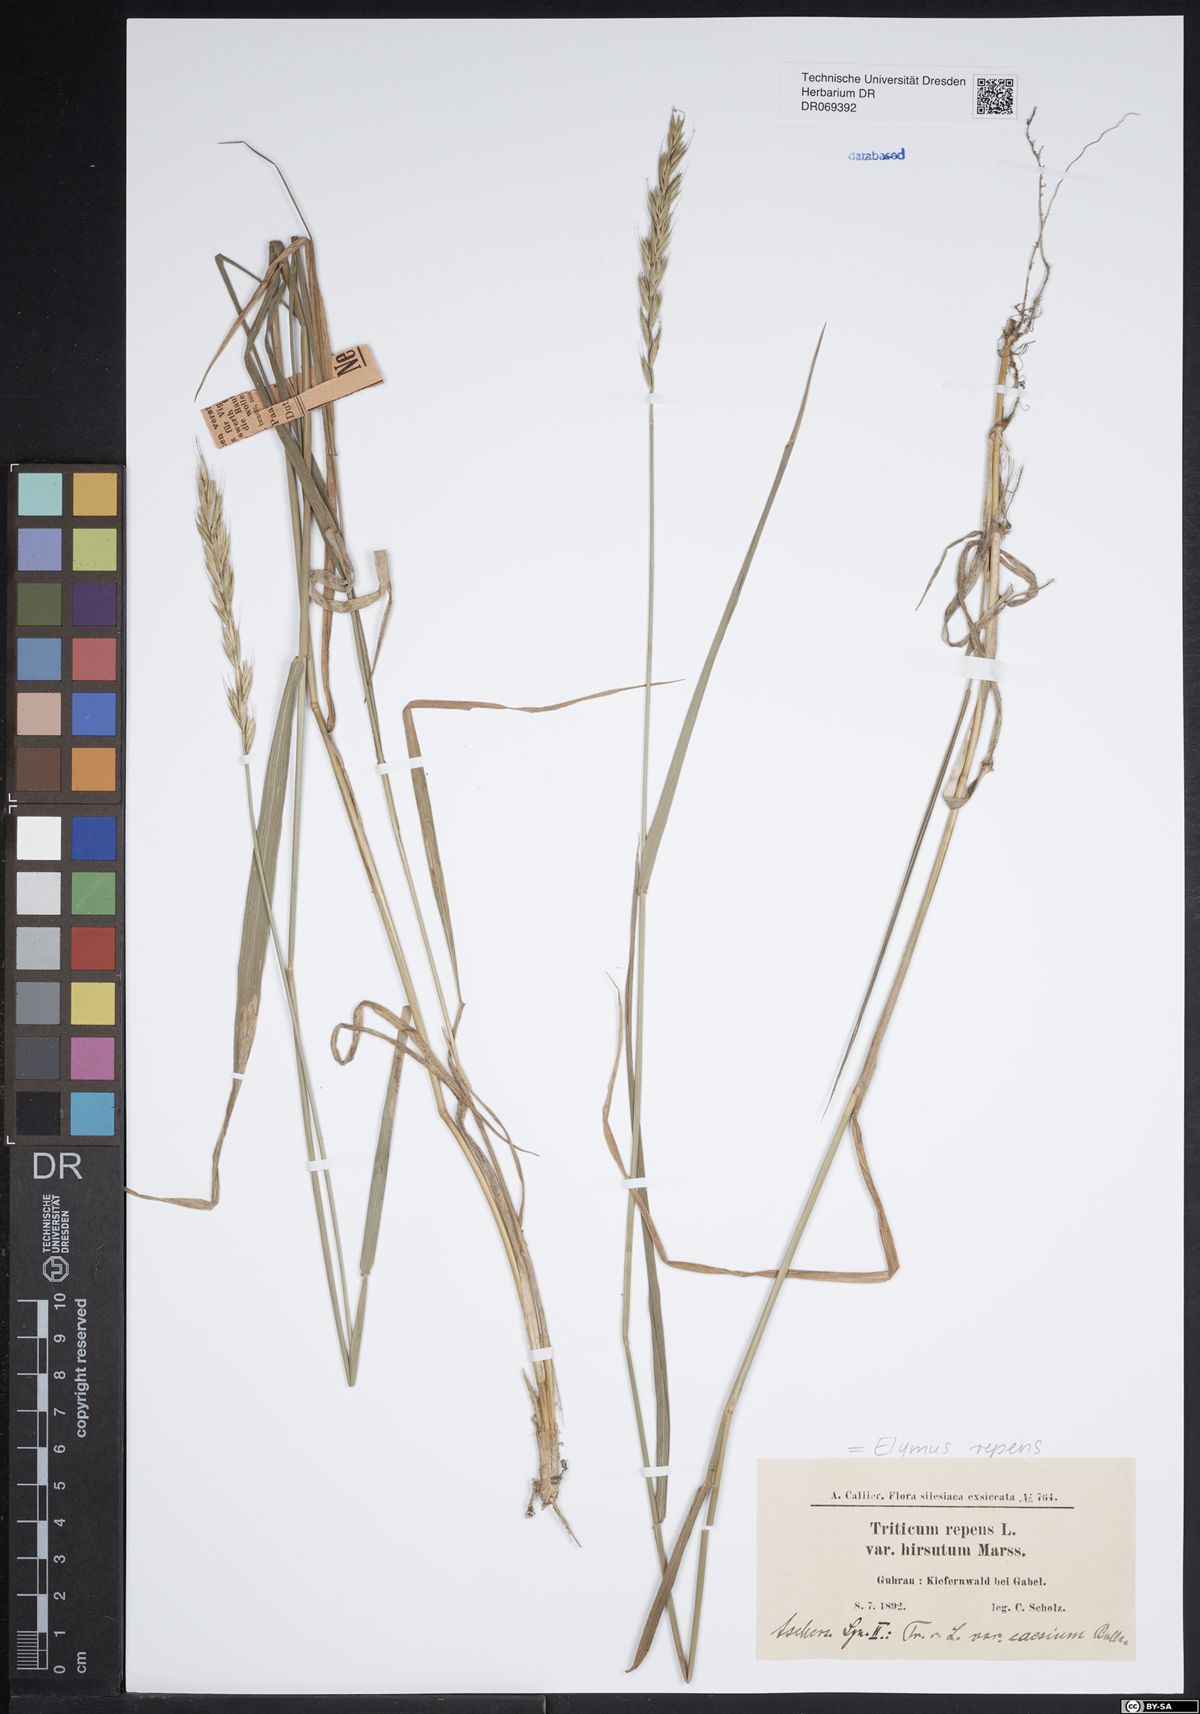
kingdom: Plantae
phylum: Tracheophyta
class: Liliopsida
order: Poales
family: Poaceae
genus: Elymus
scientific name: Elymus repens
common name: Quackgrass
